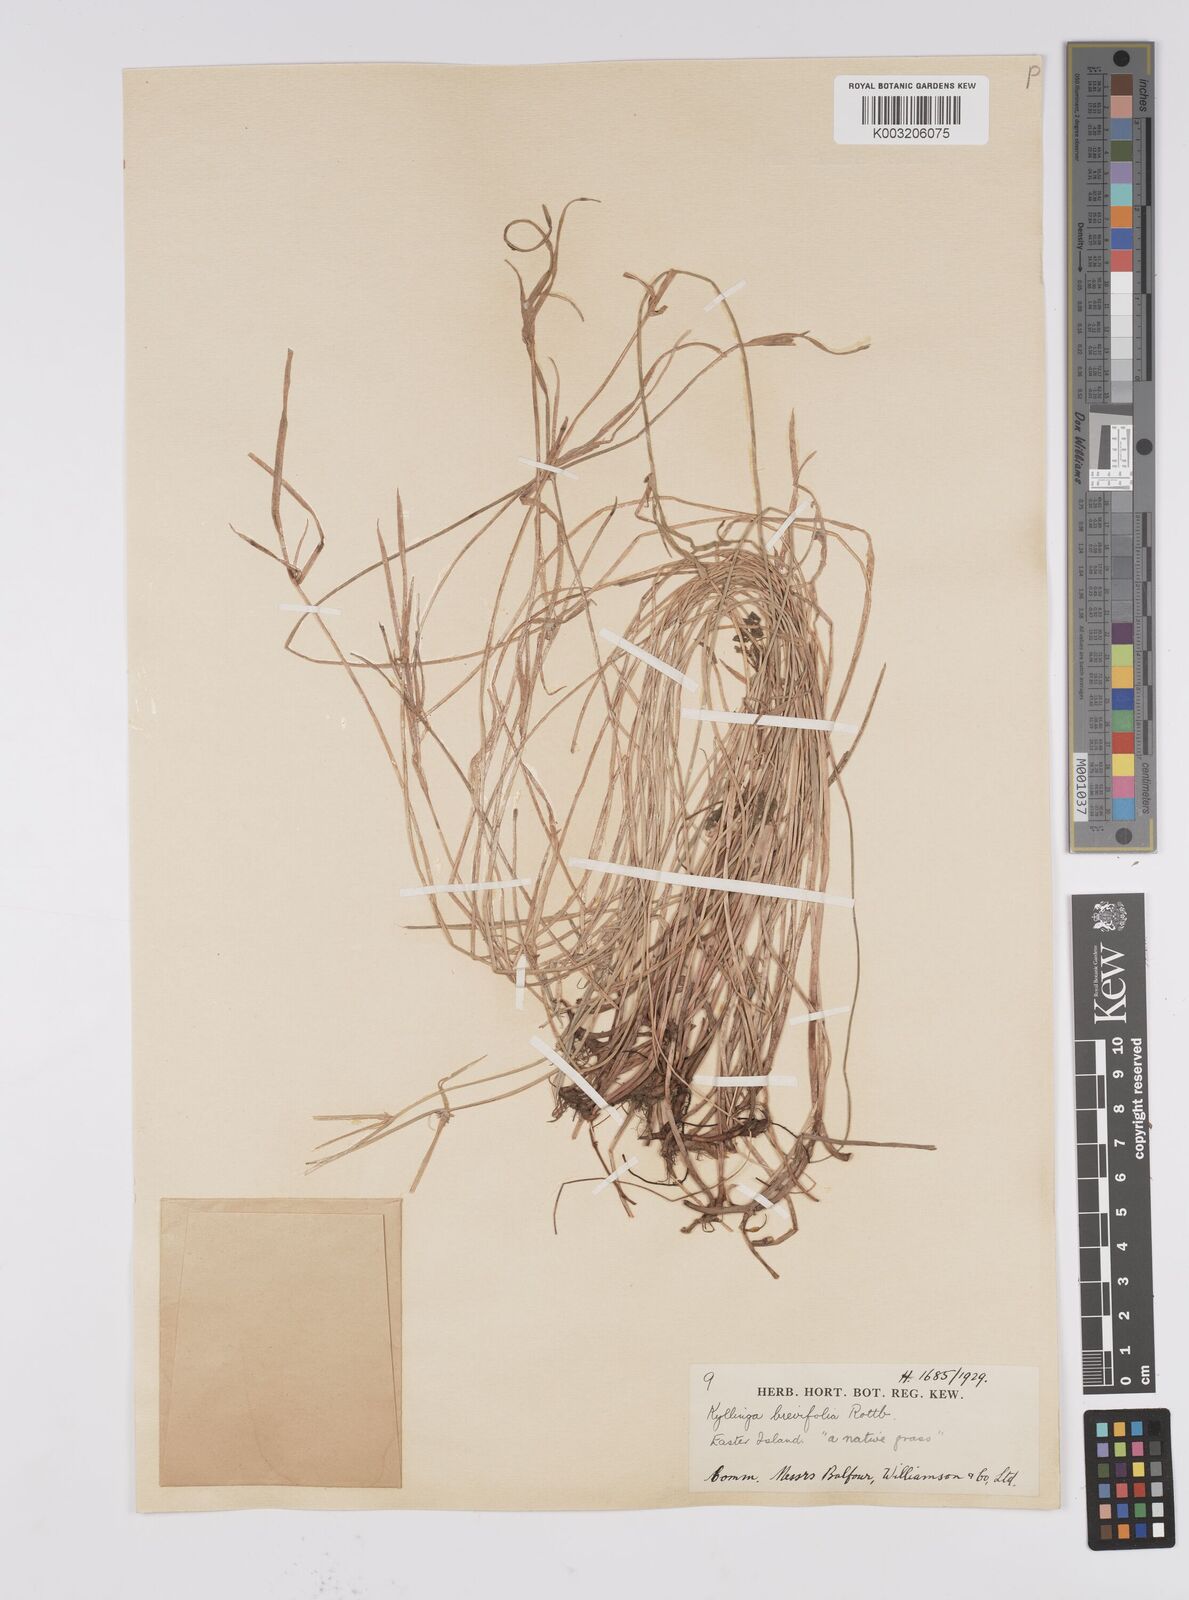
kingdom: Plantae
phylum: Tracheophyta
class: Liliopsida
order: Poales
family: Cyperaceae
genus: Cyperus
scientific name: Cyperus brevifolius
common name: Globe kyllinga
